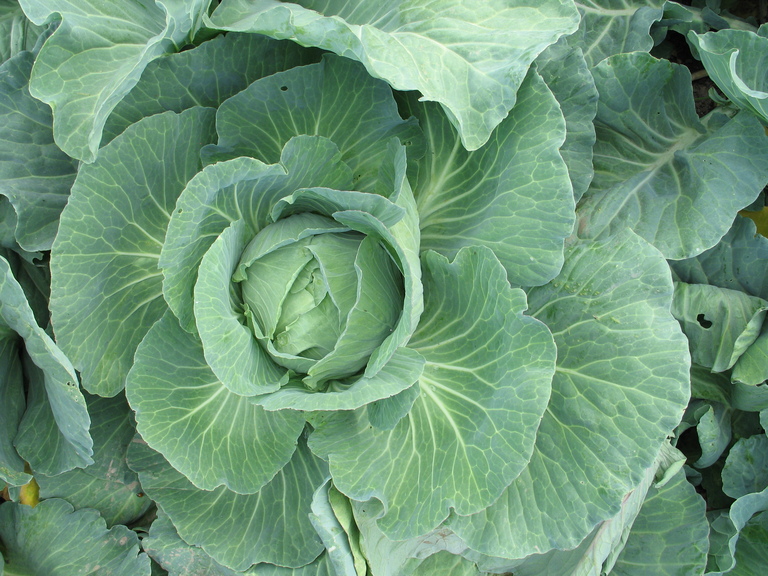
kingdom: Plantae
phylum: Tracheophyta
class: Magnoliopsida
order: Brassicales
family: Brassicaceae
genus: Brassica
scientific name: Brassica oleracea
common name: Cabbage
